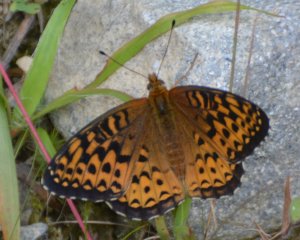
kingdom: Animalia
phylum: Arthropoda
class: Insecta
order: Lepidoptera
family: Nymphalidae
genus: Speyeria
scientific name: Speyeria atlantis
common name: Atlantis Fritillary
